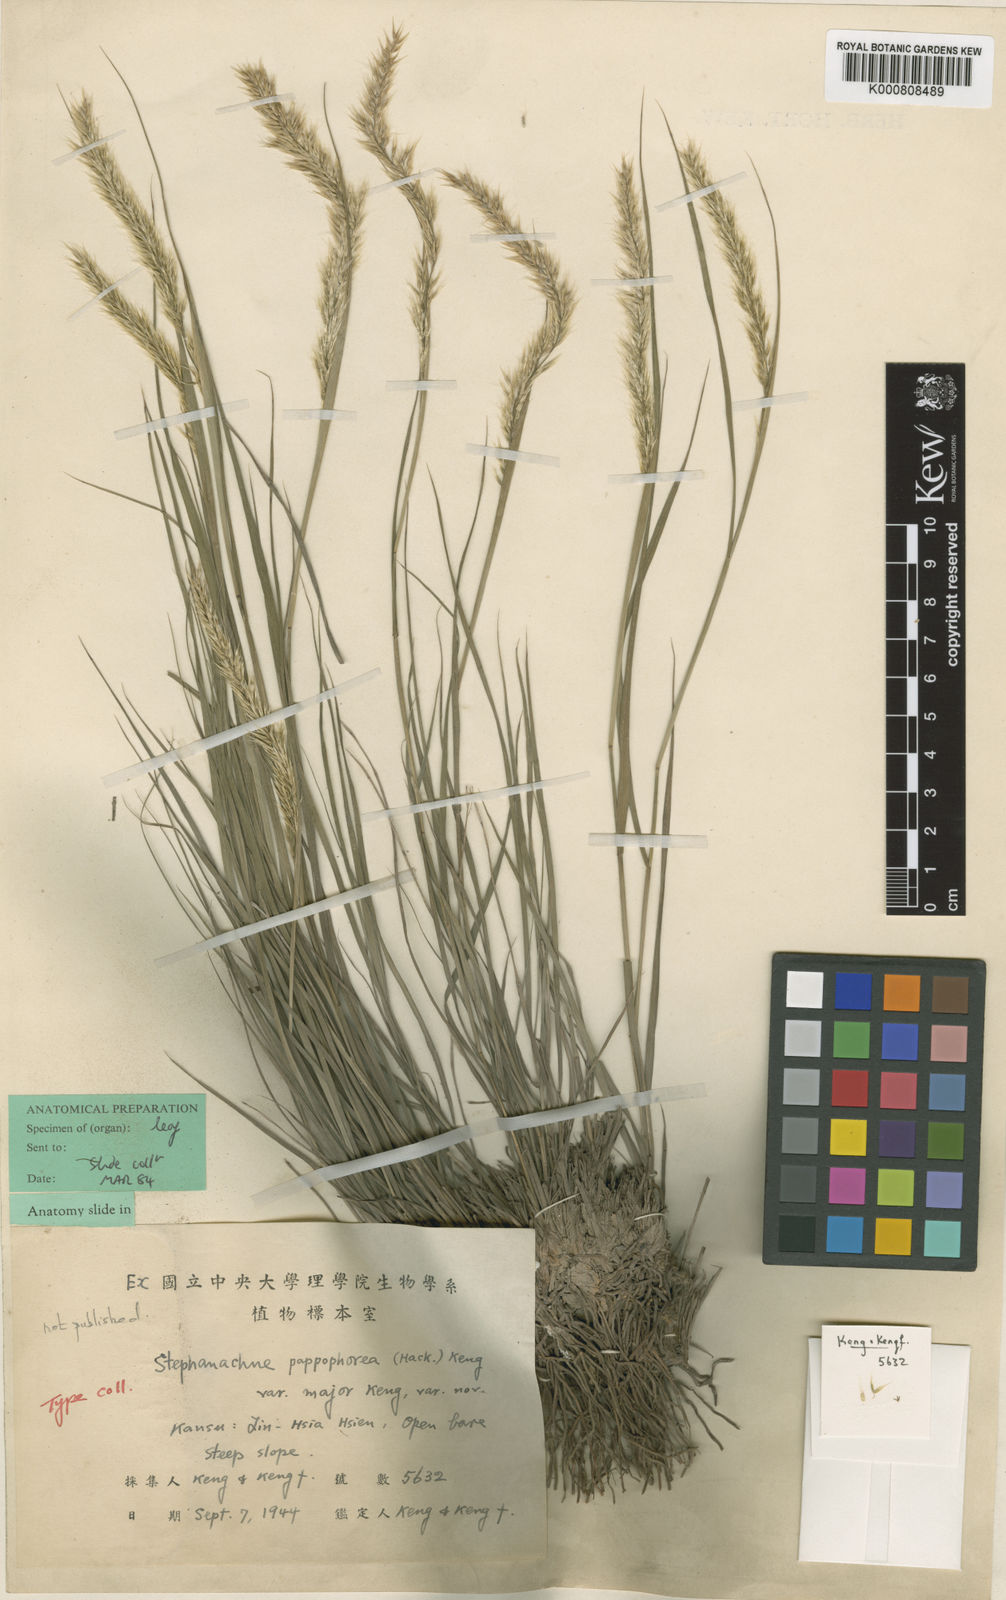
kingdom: Plantae
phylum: Tracheophyta
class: Liliopsida
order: Poales
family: Poaceae
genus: Pappagrostis
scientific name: Pappagrostis pappophorea
